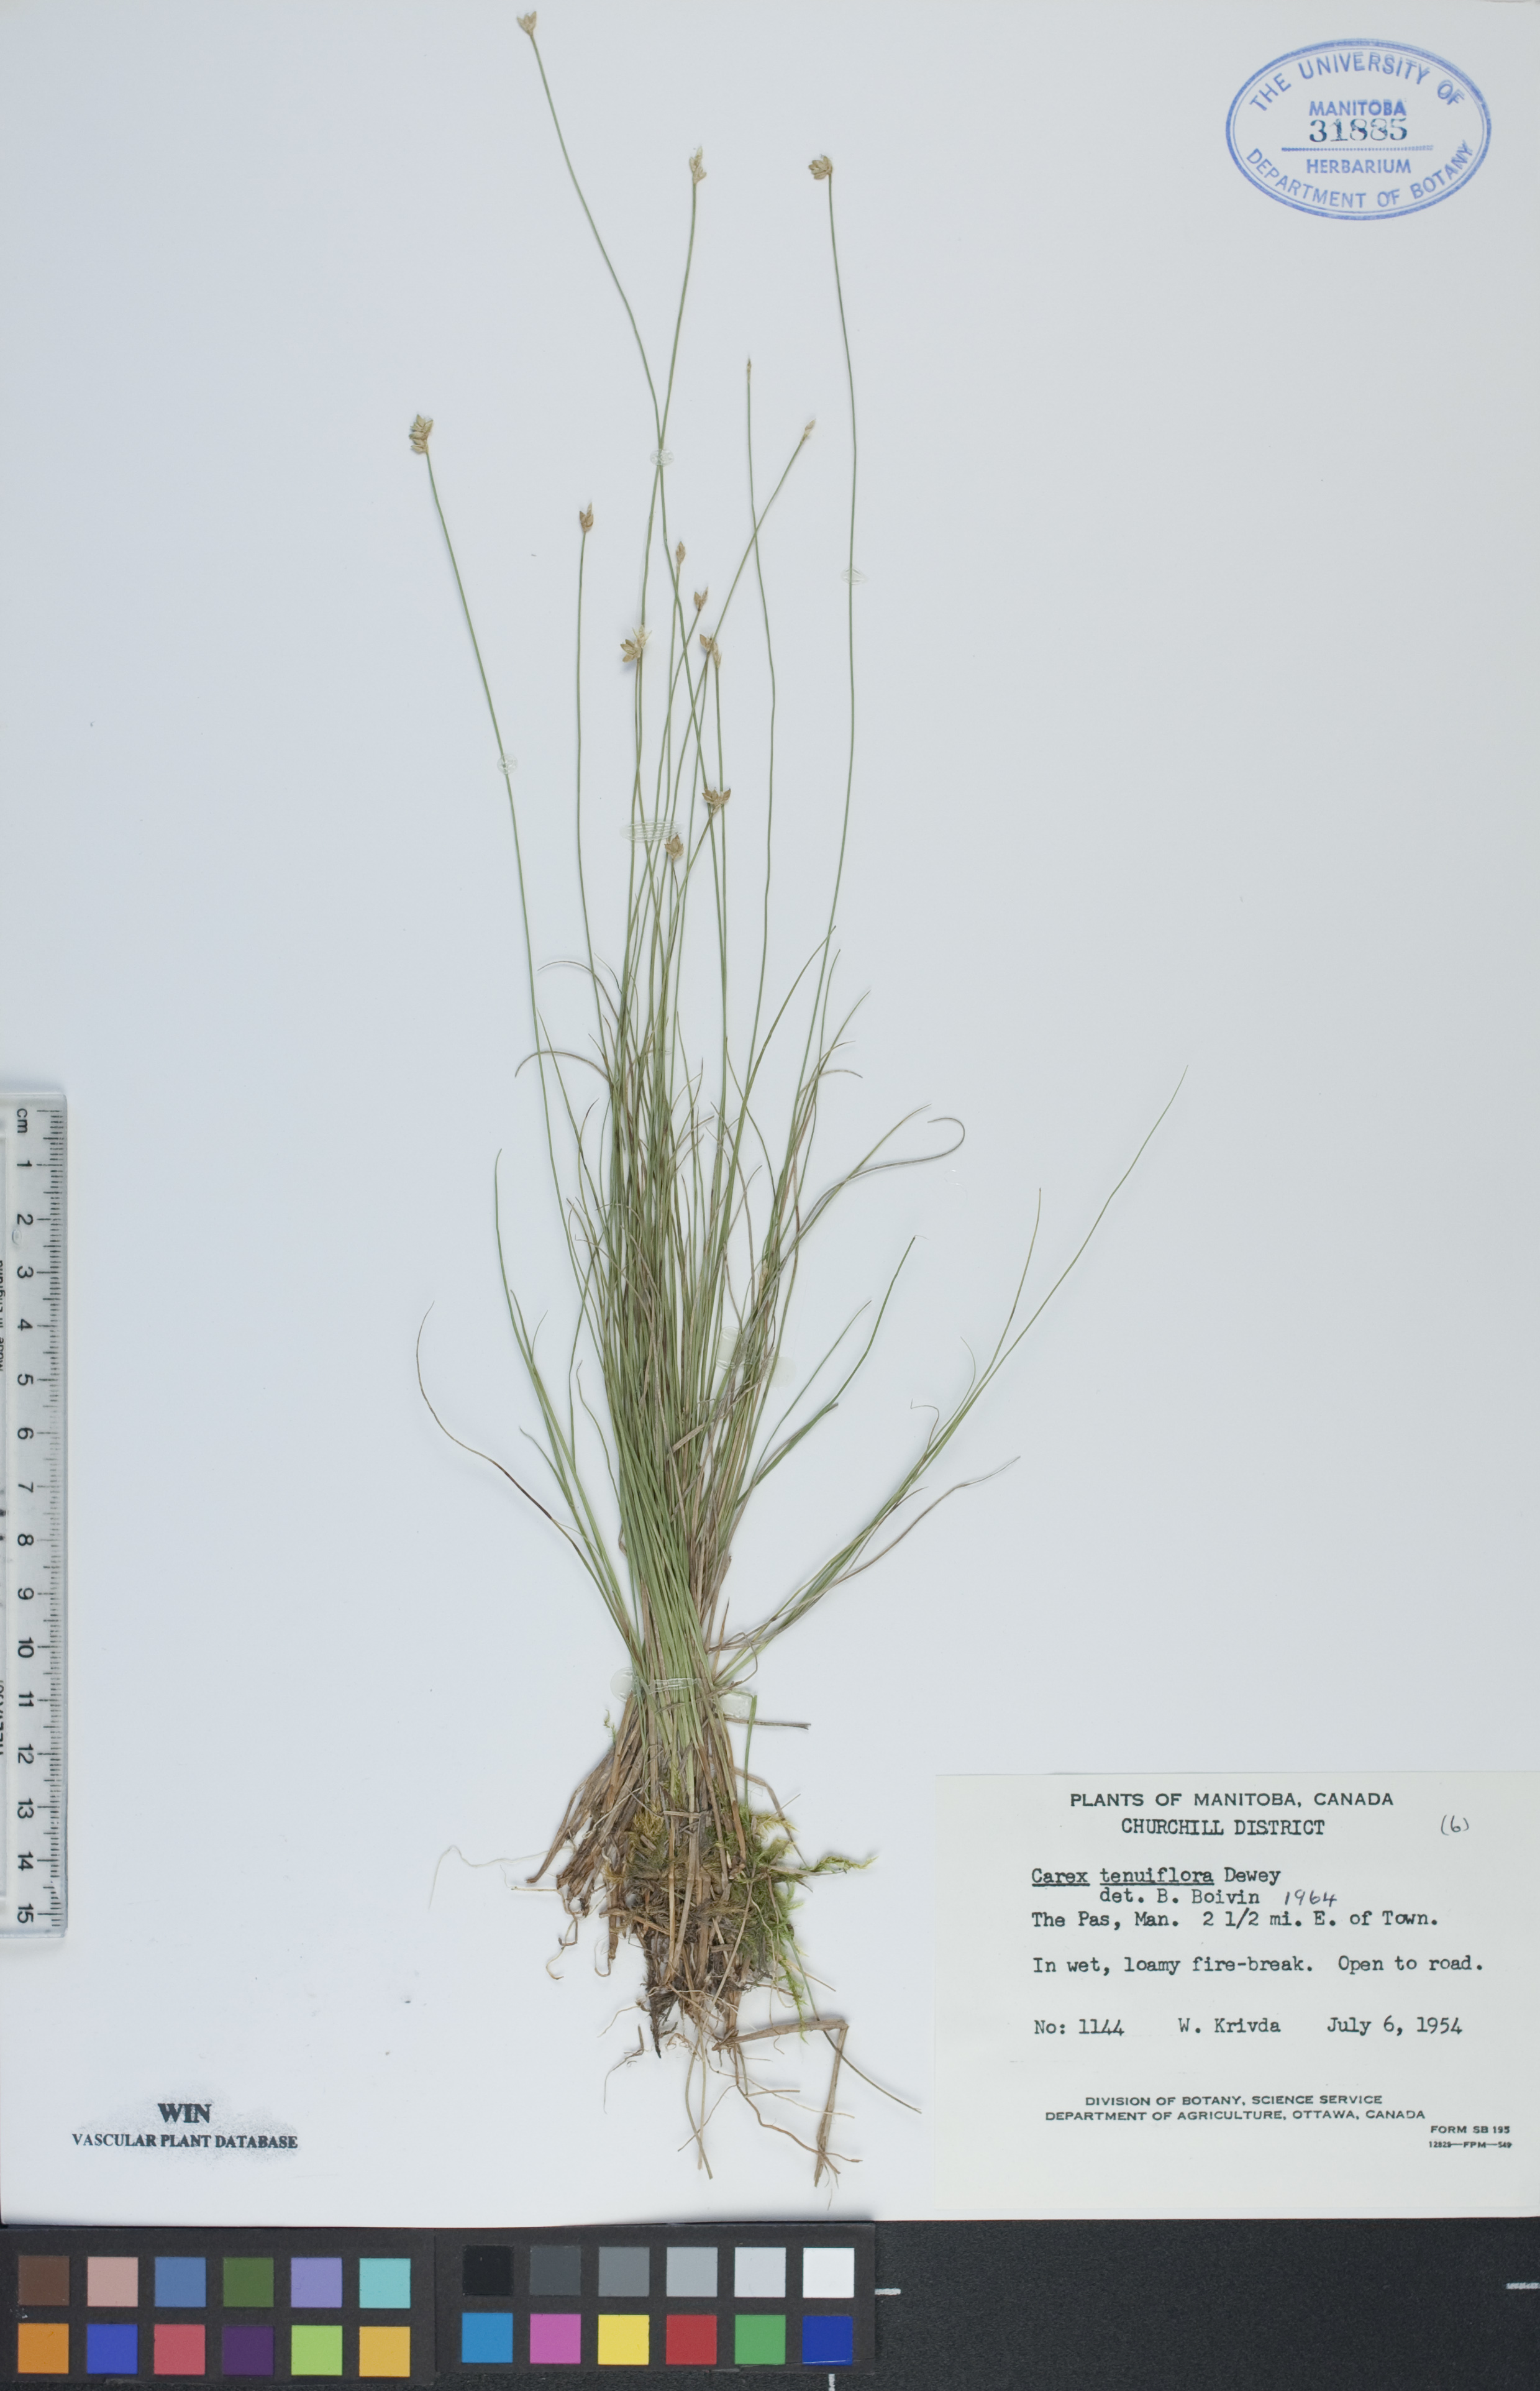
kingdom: Plantae
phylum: Tracheophyta
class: Liliopsida
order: Poales
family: Cyperaceae
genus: Carex
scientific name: Carex tenuiflora
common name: Sparse-flowered sedge
